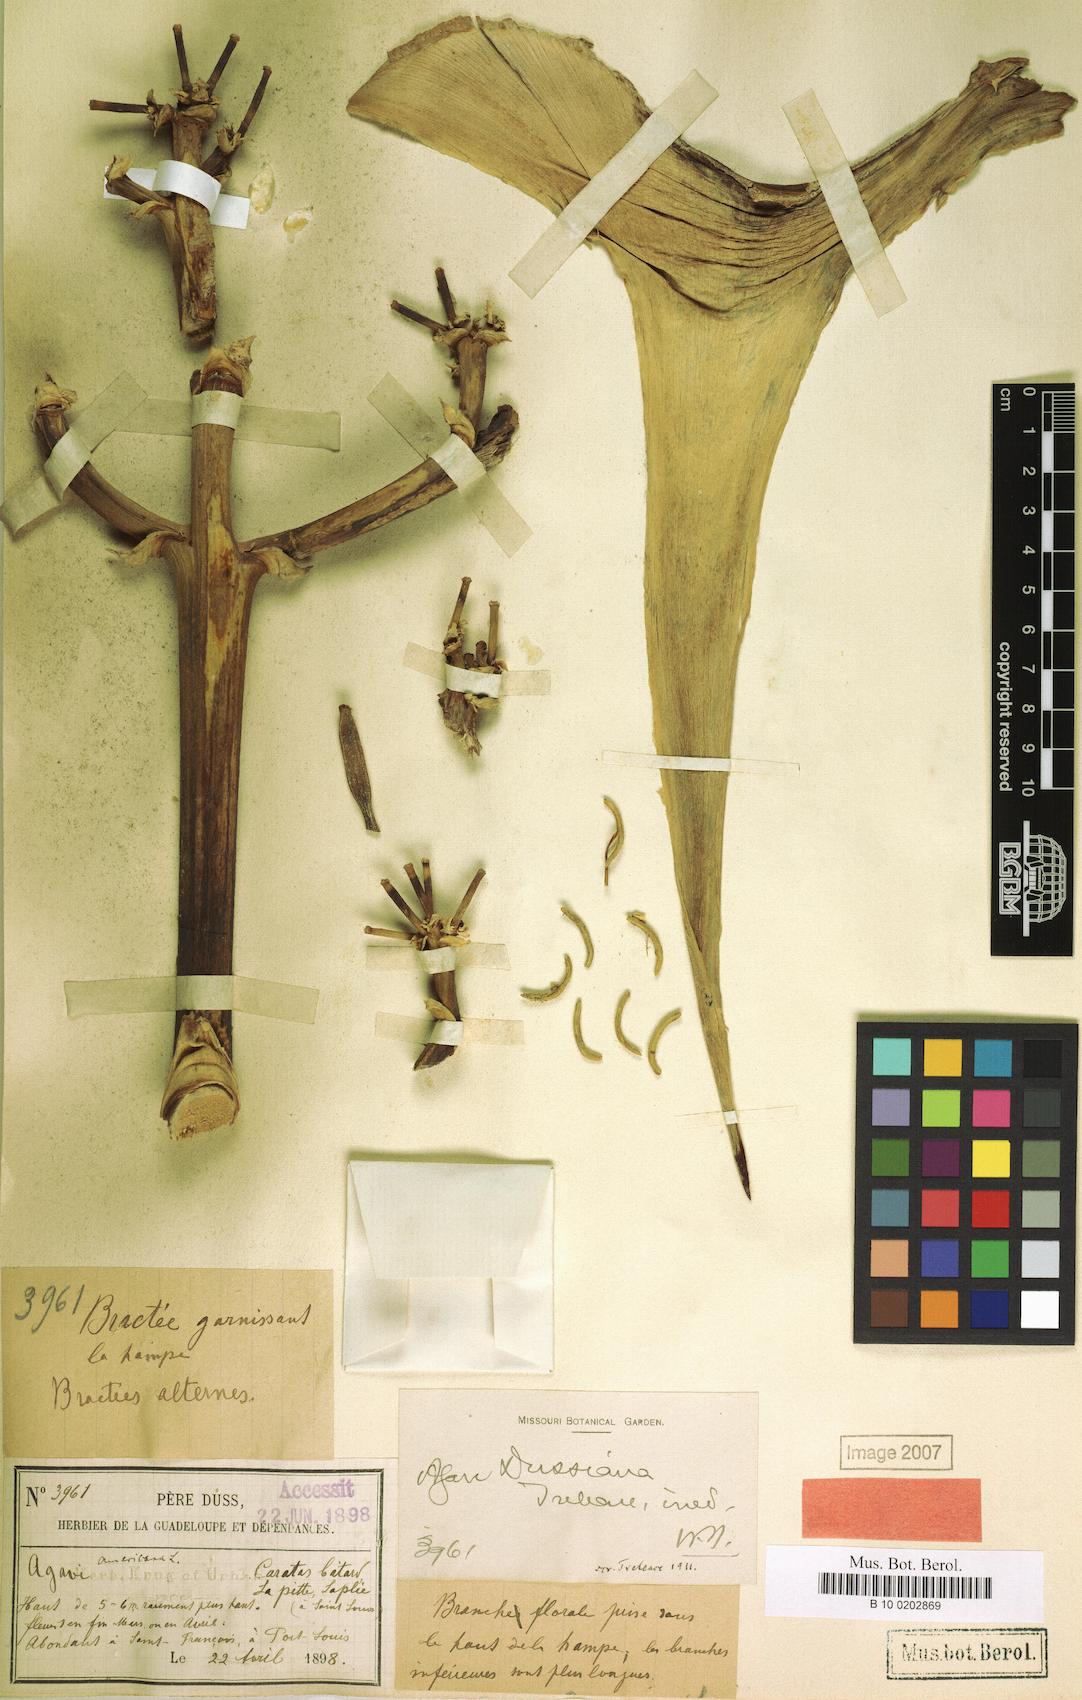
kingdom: Plantae
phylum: Tracheophyta
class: Liliopsida
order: Asparagales
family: Asparagaceae
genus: Agave
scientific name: Agave dussiana
